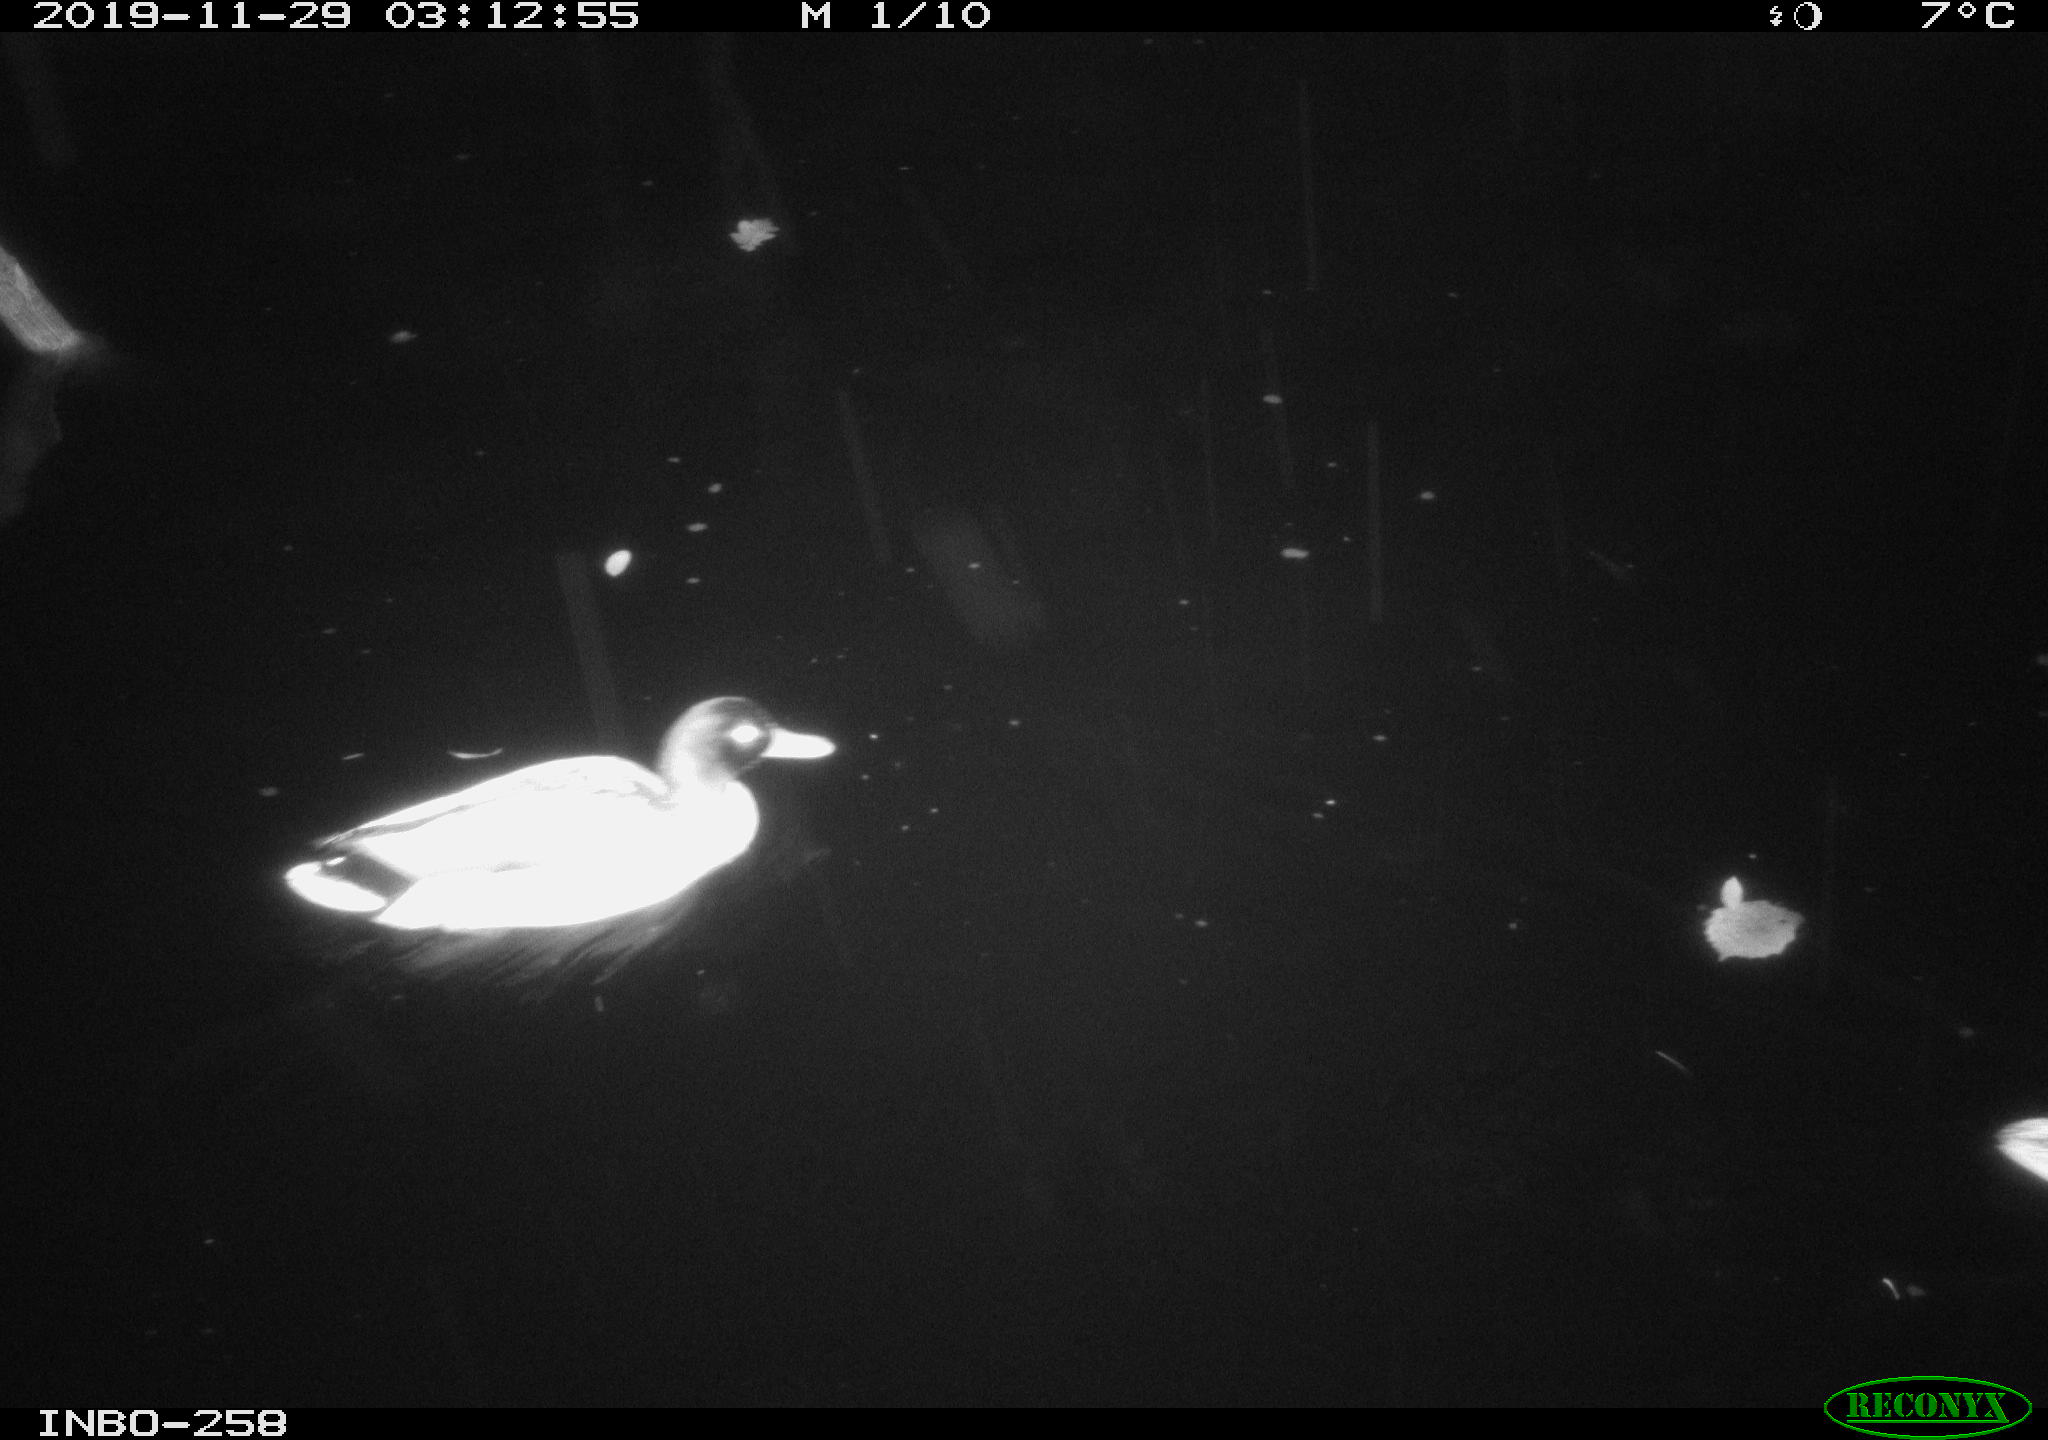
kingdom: Animalia
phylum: Chordata
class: Aves
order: Anseriformes
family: Anatidae
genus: Anas
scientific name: Anas platyrhynchos
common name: Mallard
